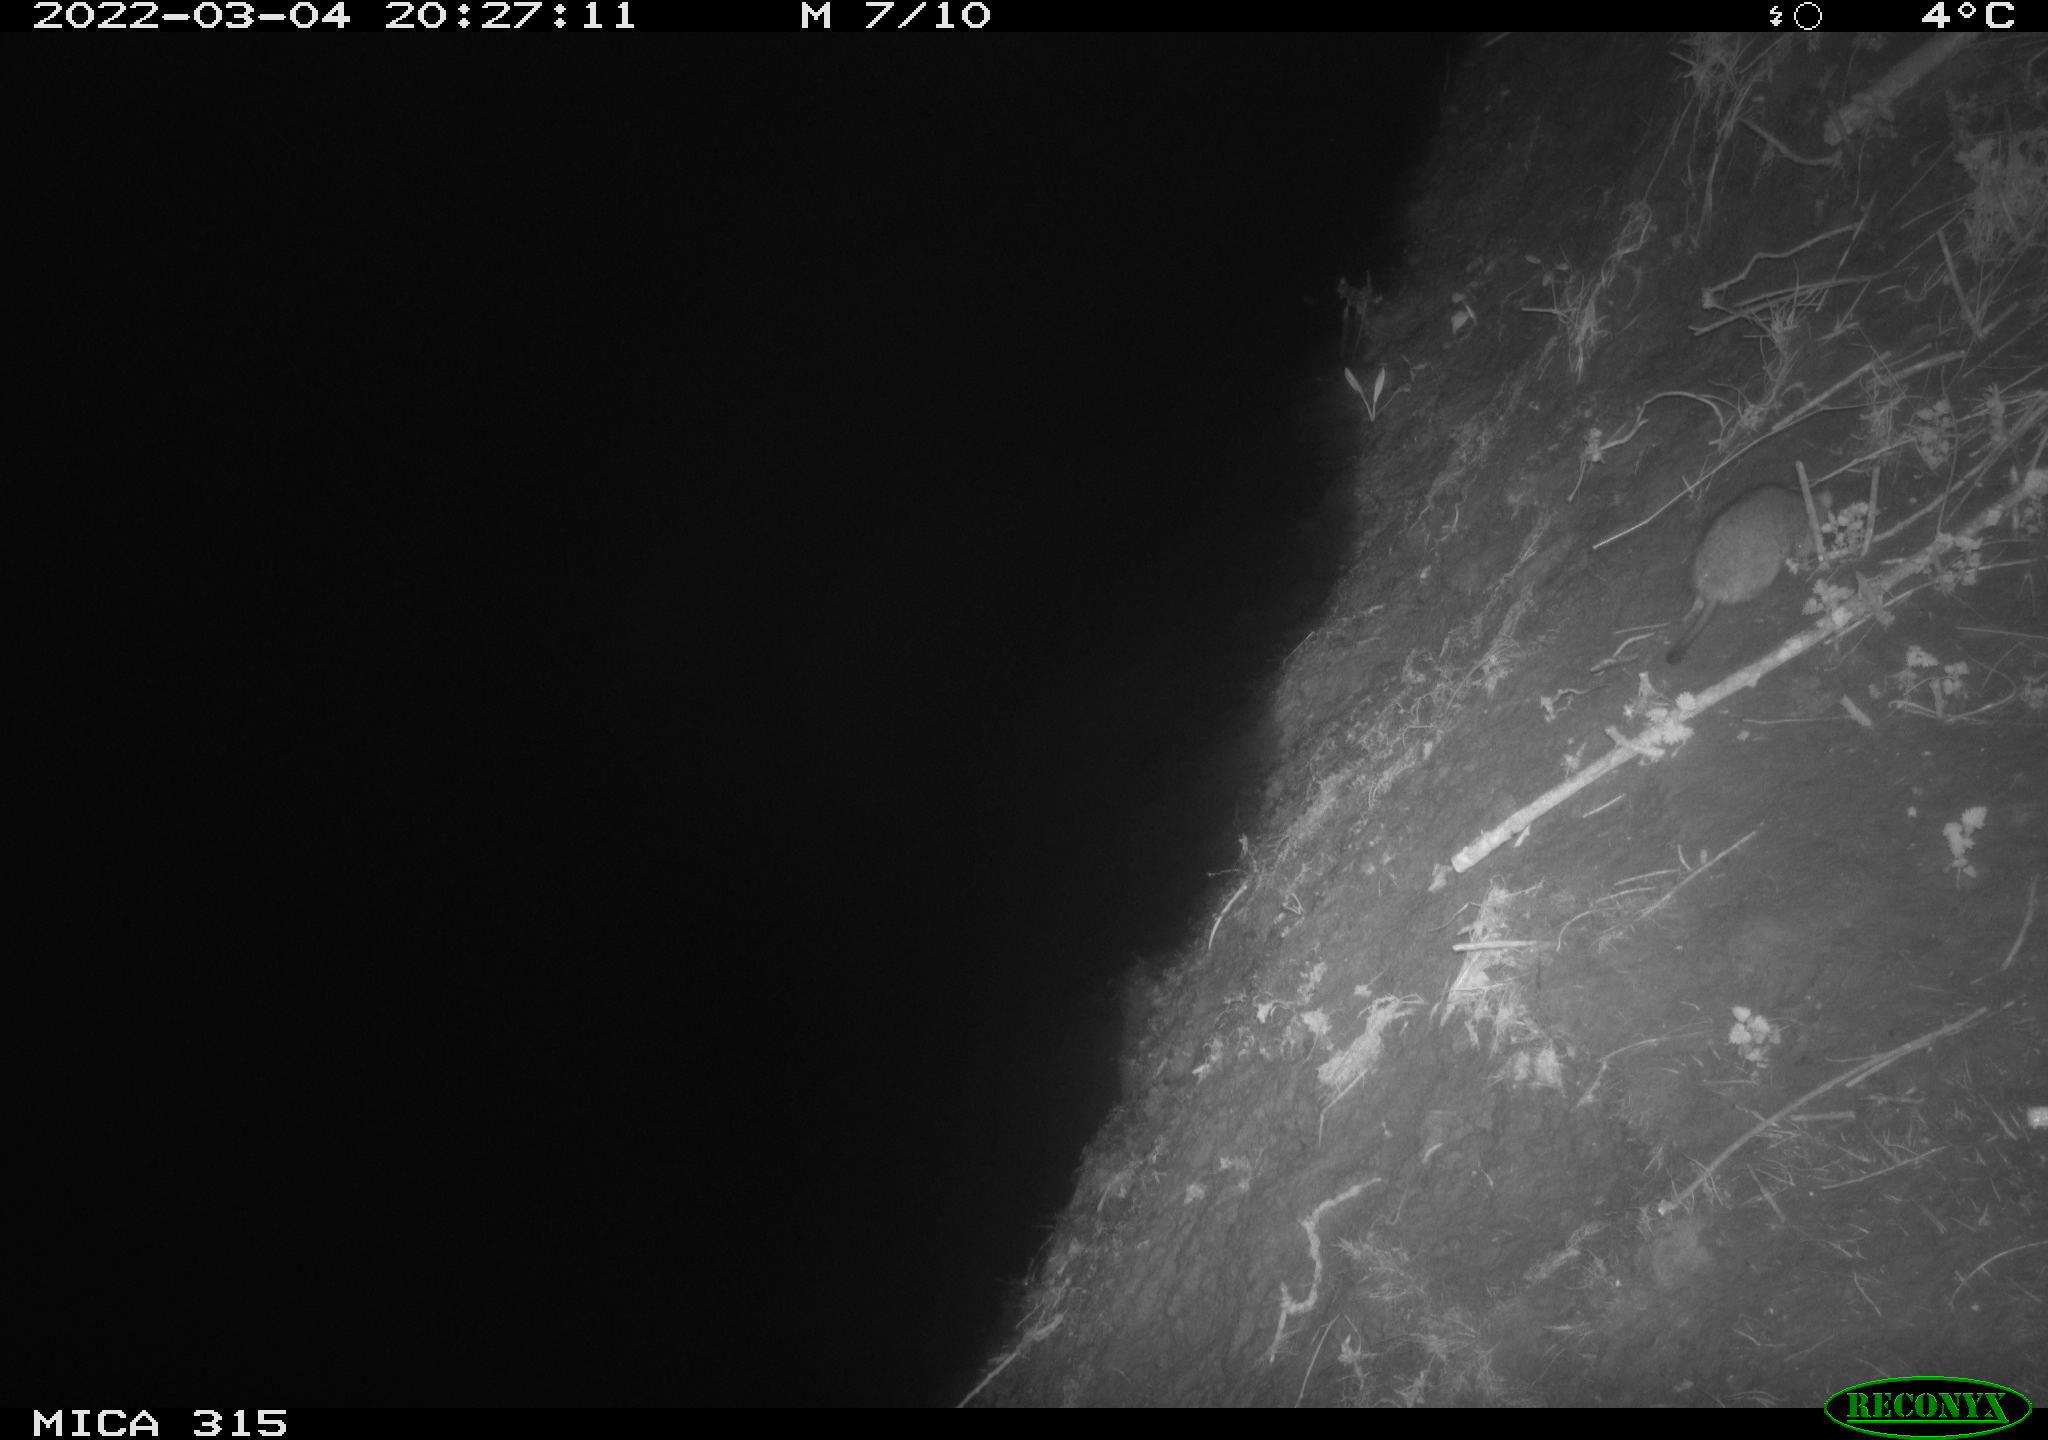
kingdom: Animalia
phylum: Chordata
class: Mammalia
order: Rodentia
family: Muridae
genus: Rattus
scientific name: Rattus norvegicus
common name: Brown rat
